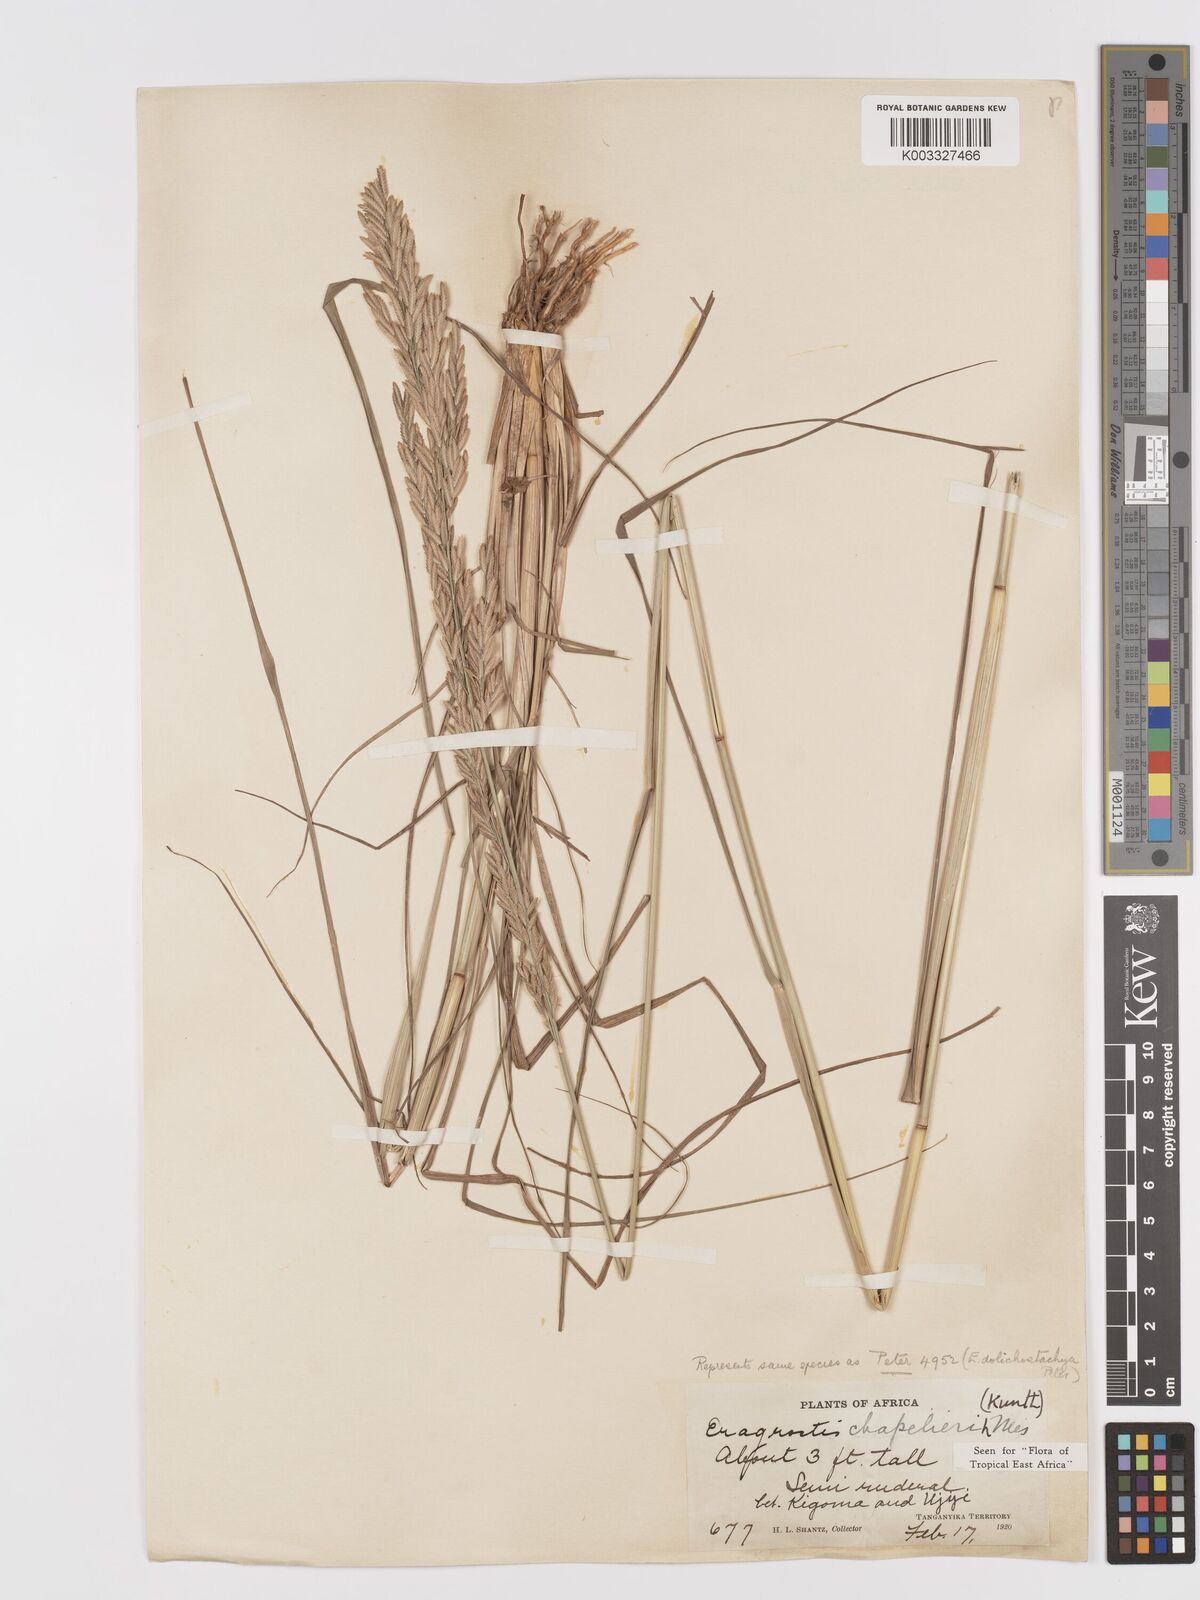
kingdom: Plantae
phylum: Tracheophyta
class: Liliopsida
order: Poales
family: Poaceae
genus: Eragrostis
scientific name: Eragrostis chapelieri
